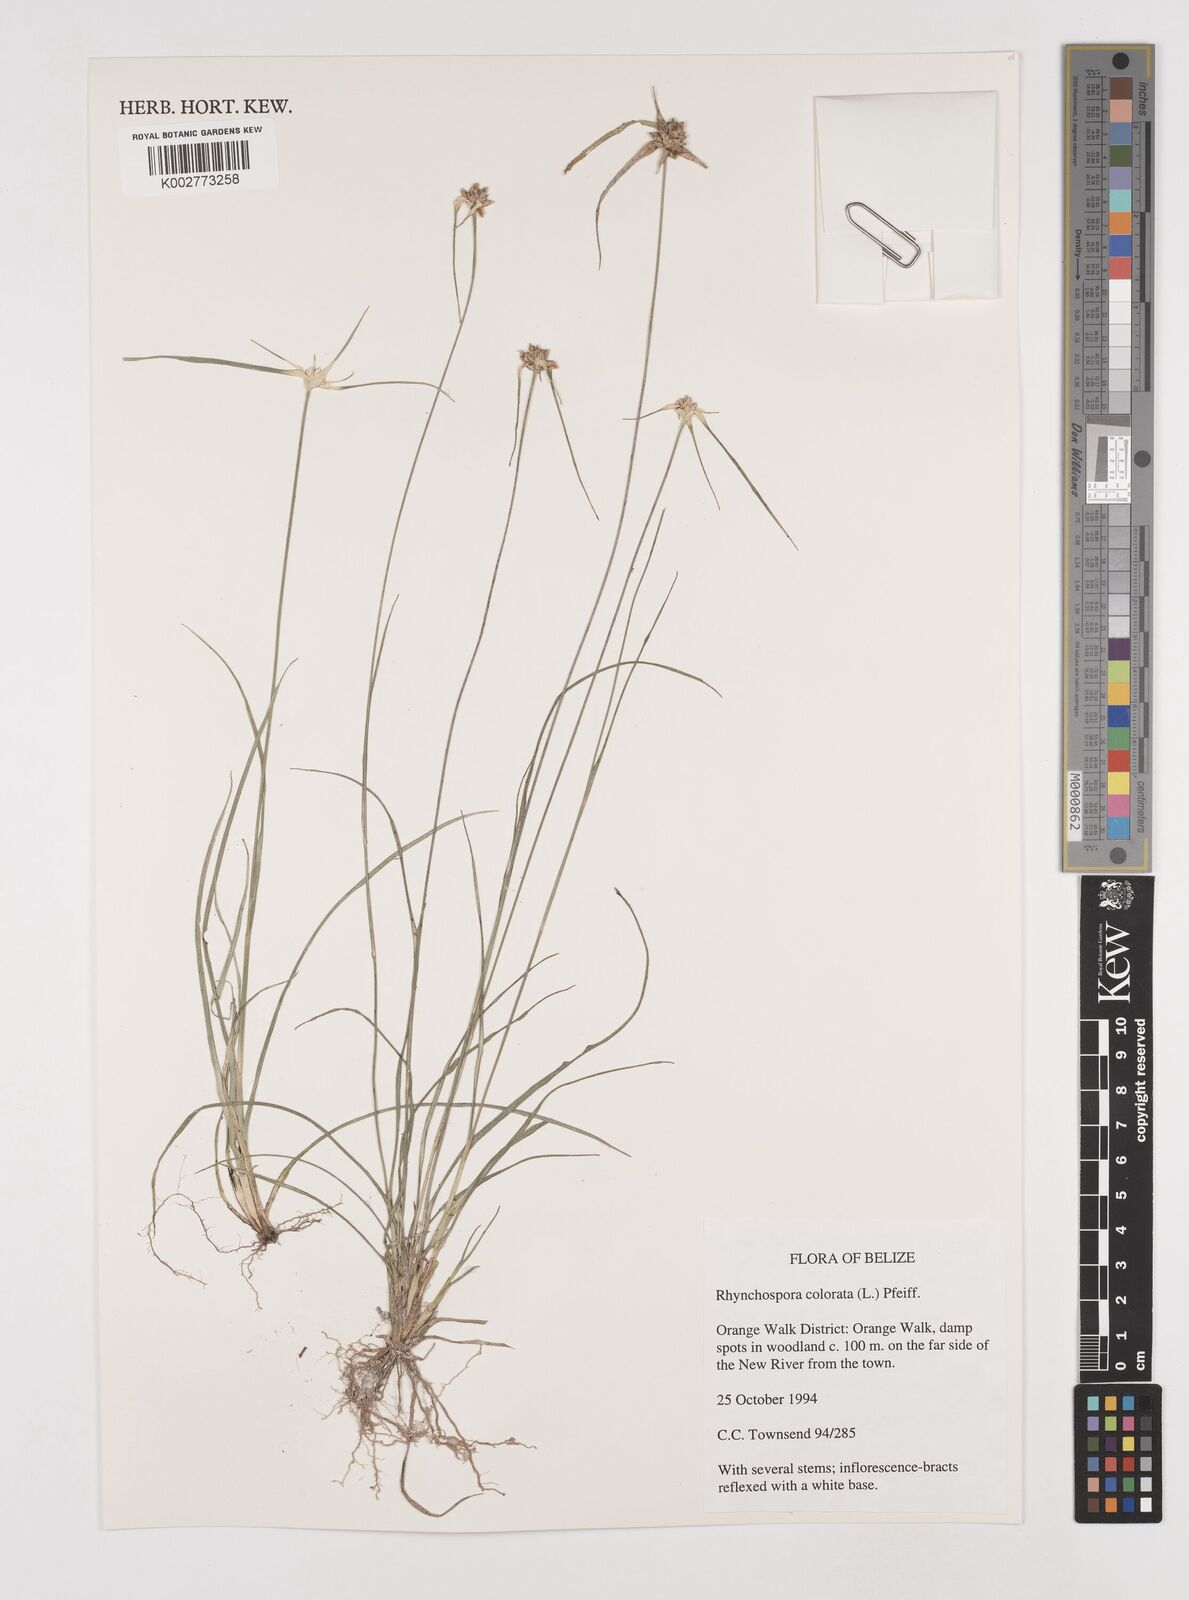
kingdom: Plantae
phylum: Tracheophyta
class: Liliopsida
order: Poales
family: Cyperaceae
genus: Rhynchospora
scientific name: Rhynchospora colorata
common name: Star sedge
